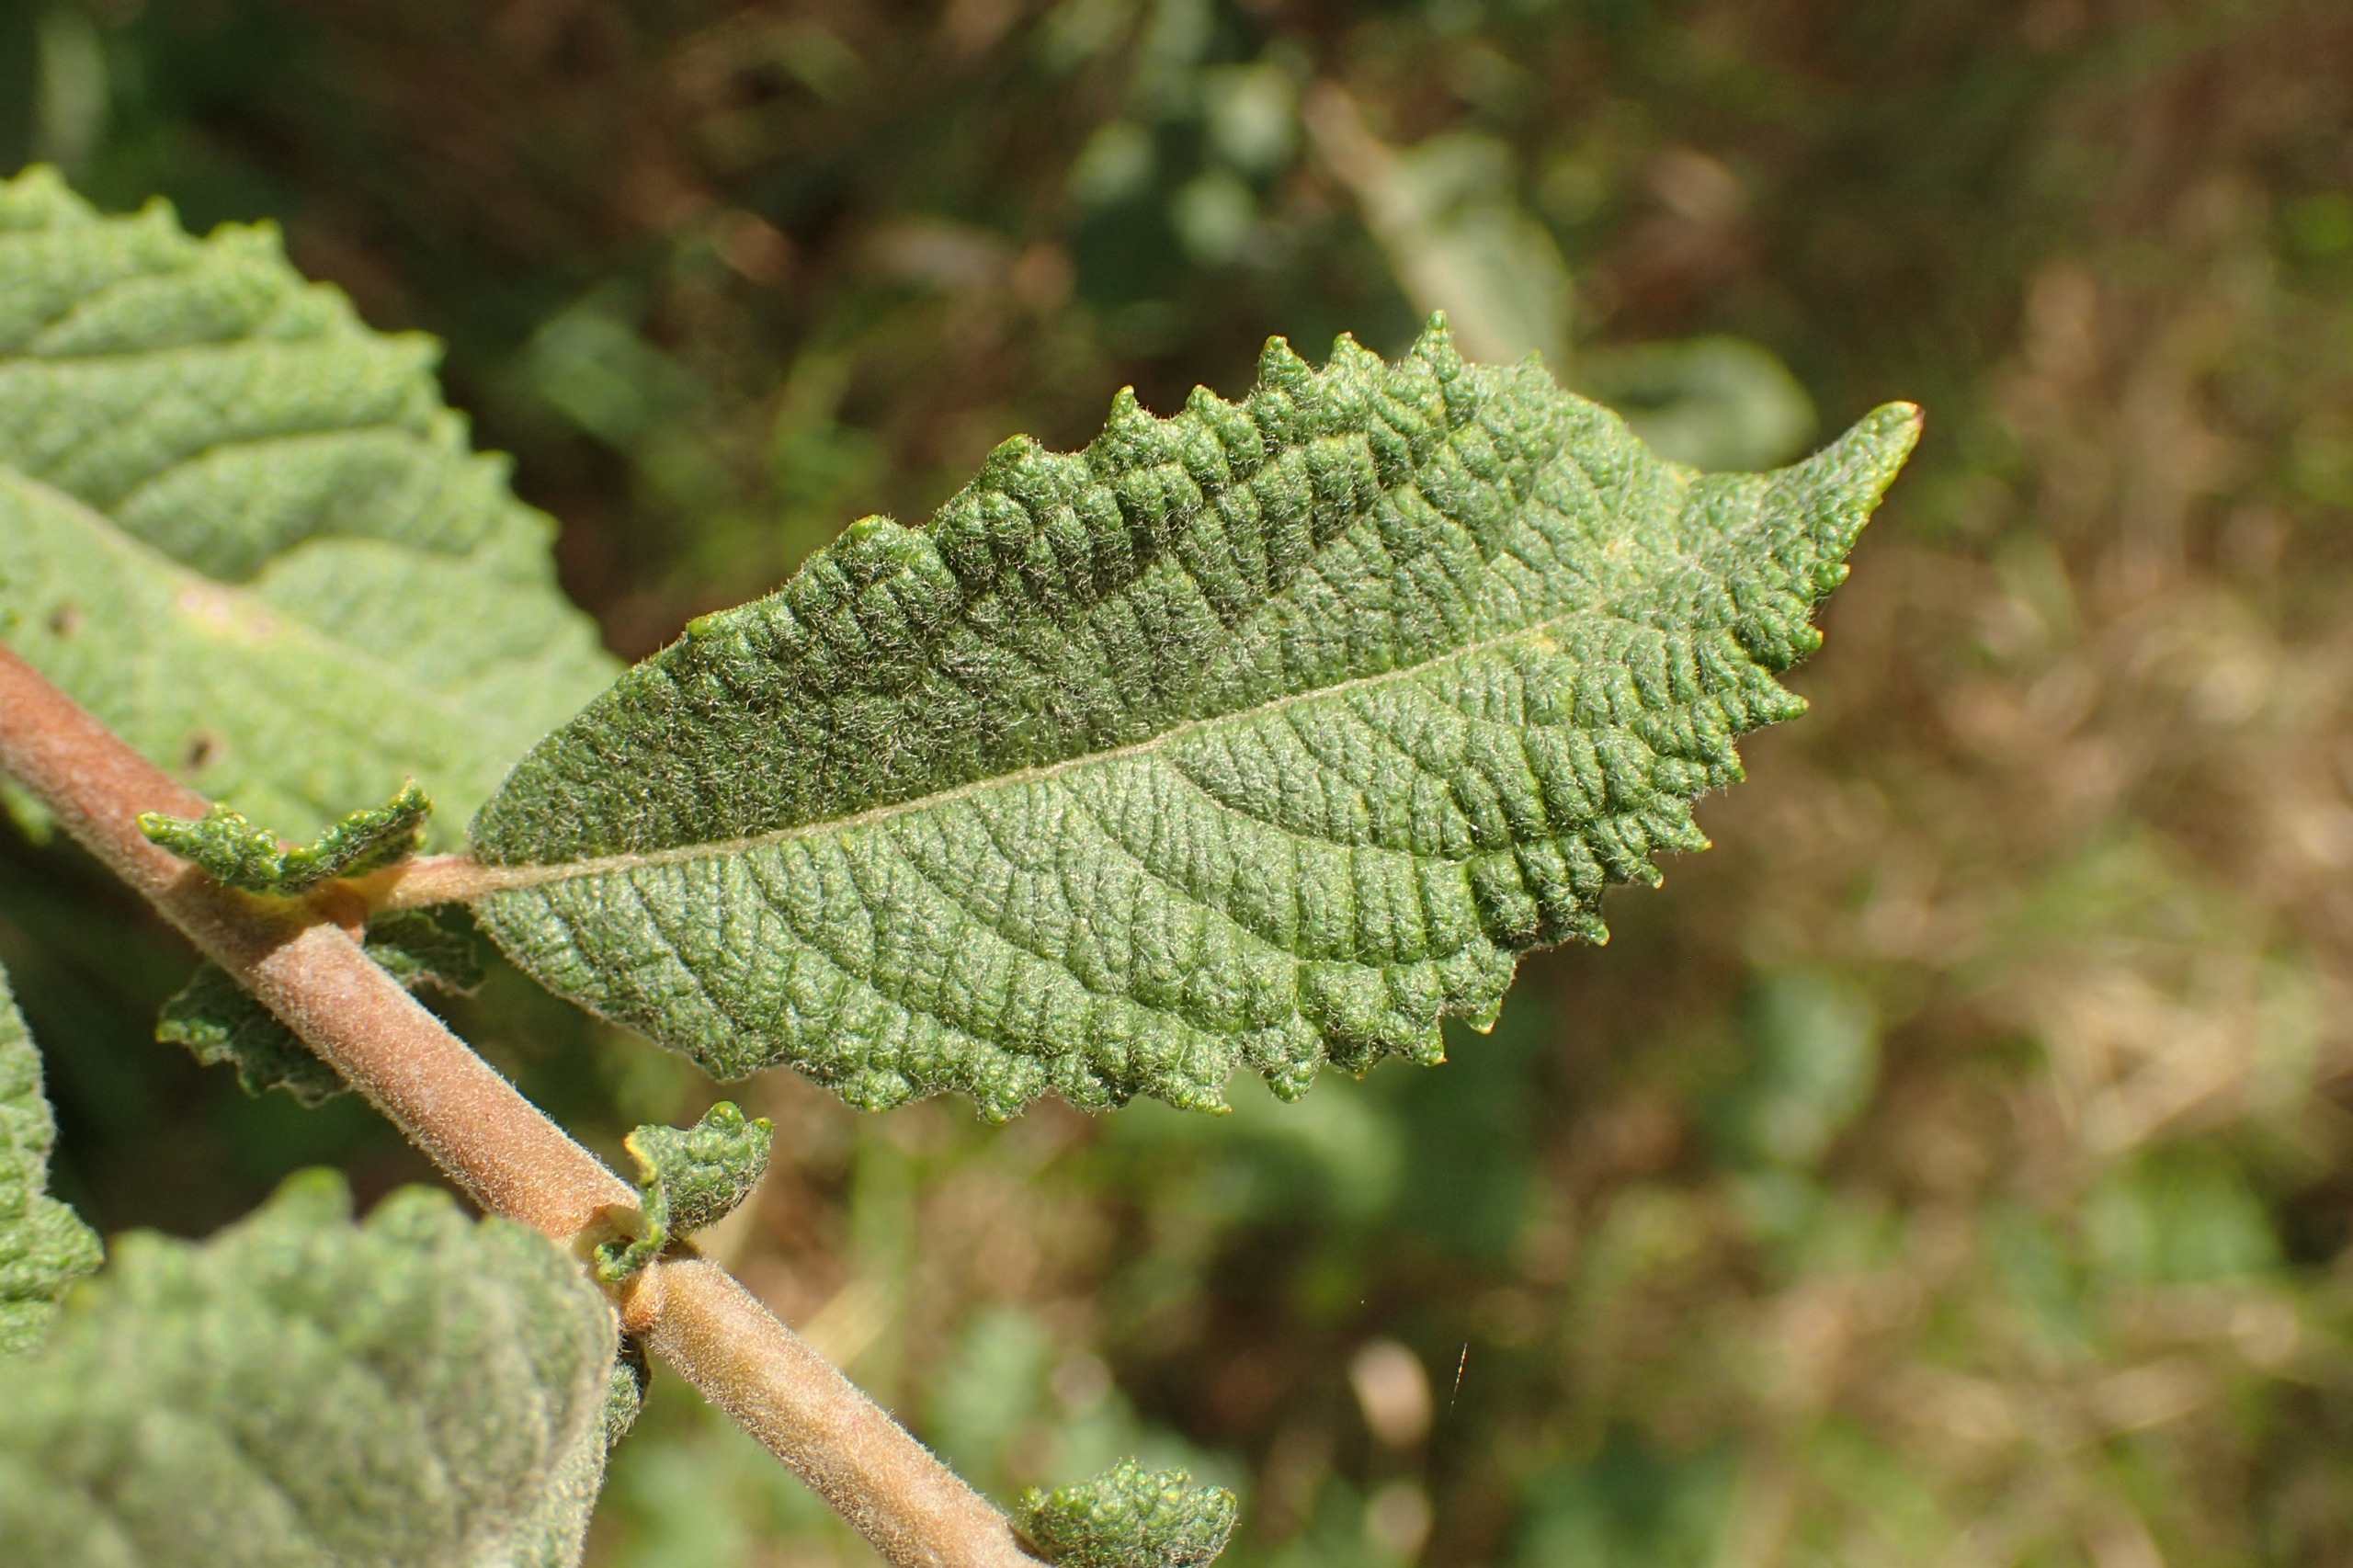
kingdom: Plantae
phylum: Tracheophyta
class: Magnoliopsida
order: Malpighiales
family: Salicaceae
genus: Salix
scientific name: Salix aurita
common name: Øret pil
